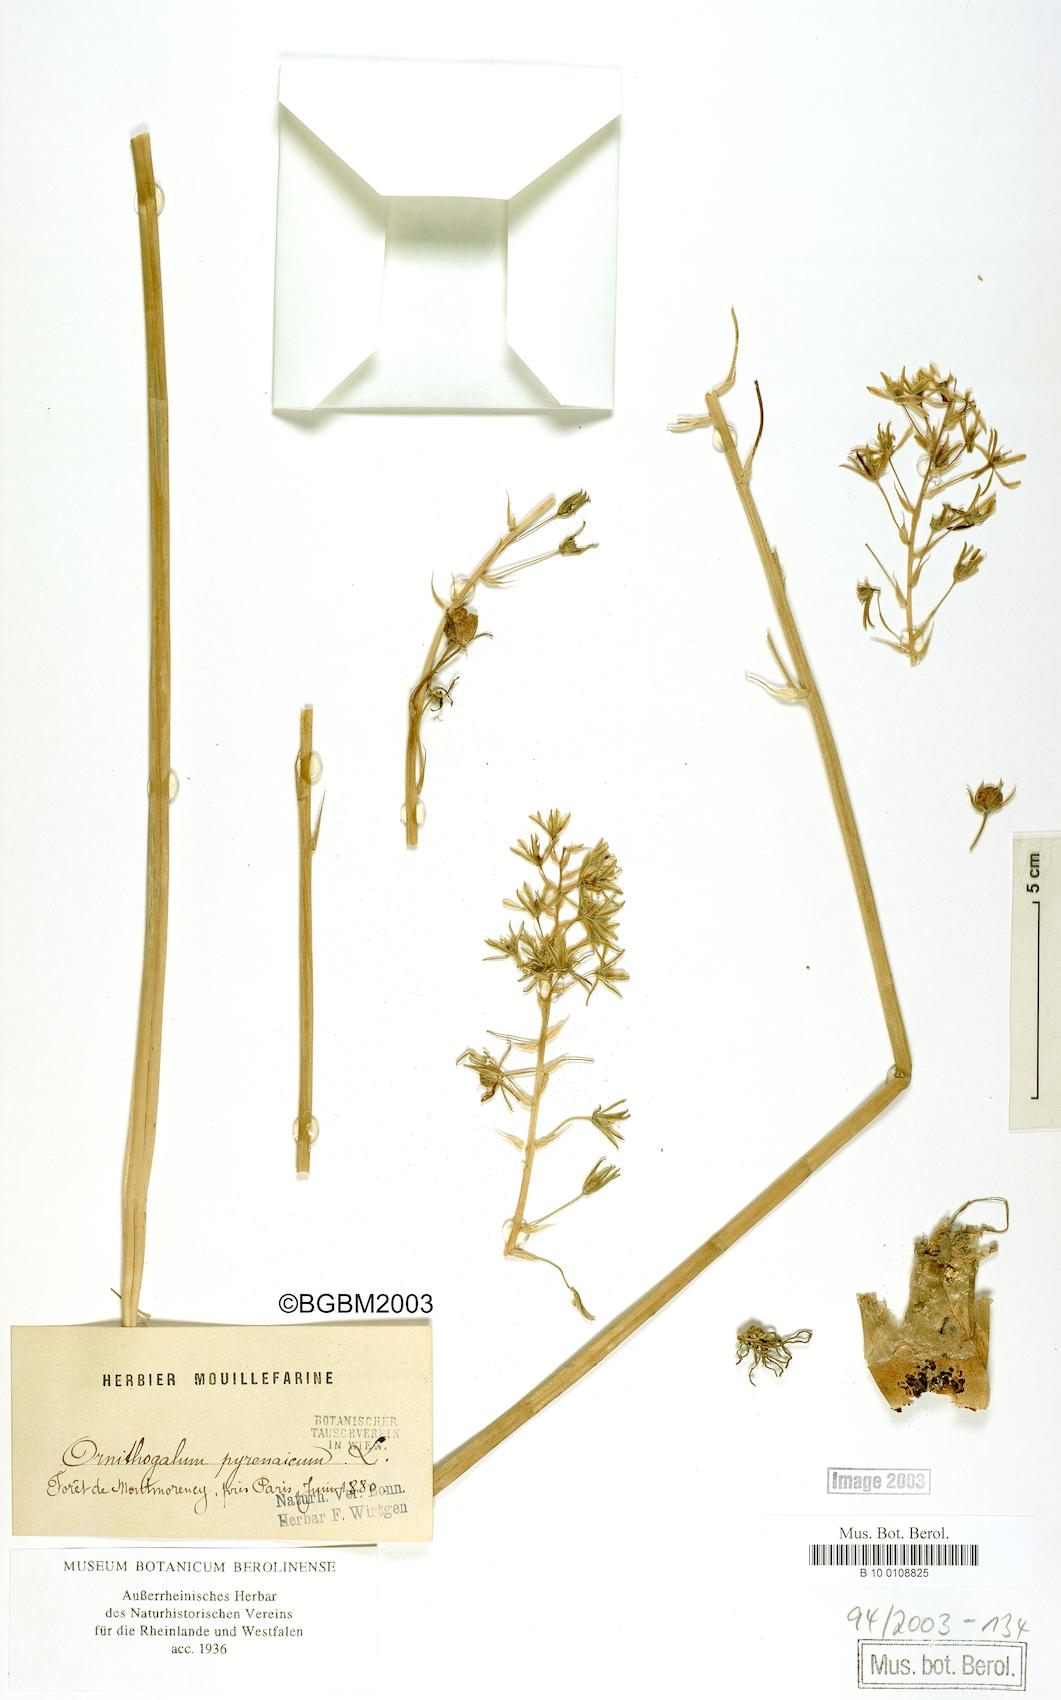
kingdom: Plantae
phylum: Tracheophyta
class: Liliopsida
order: Asparagales
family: Asparagaceae
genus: Ornithogalum
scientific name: Ornithogalum pyrenaicum
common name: Spiked star-of-bethlehem
